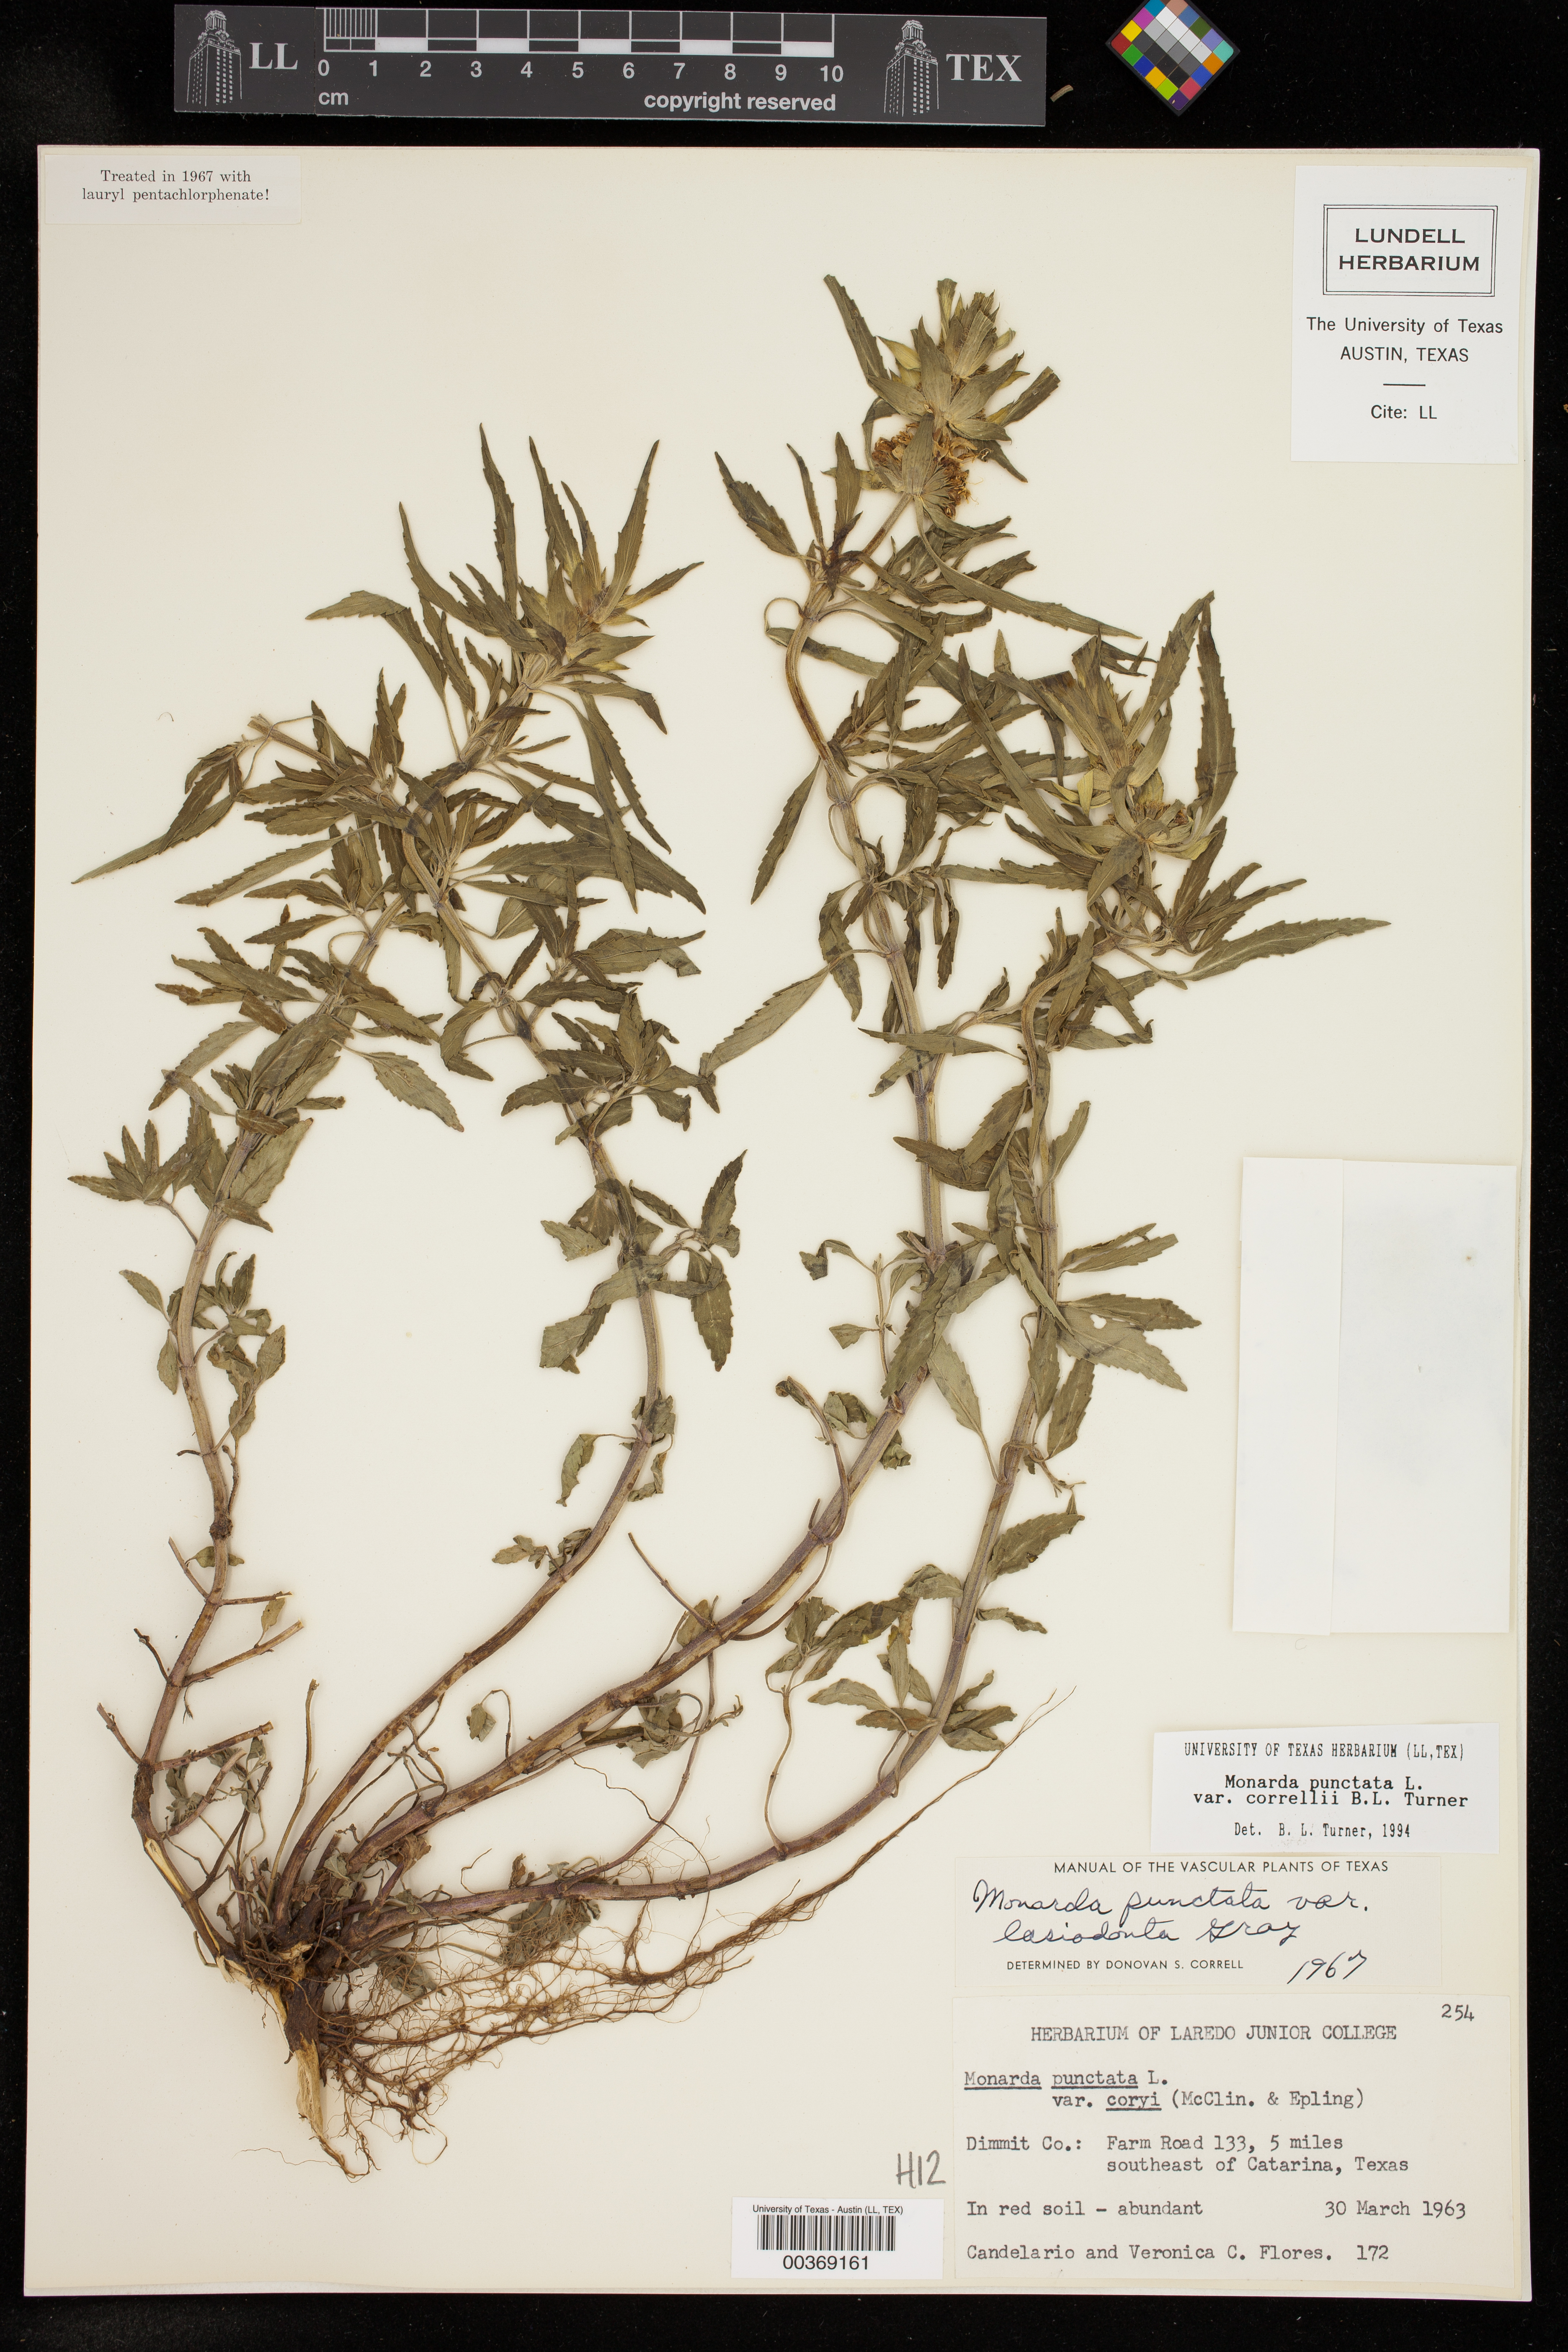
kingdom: Plantae
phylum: Tracheophyta
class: Magnoliopsida
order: Lamiales
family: Lamiaceae
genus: Monarda
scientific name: Monarda punctata
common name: Dotted monarda
